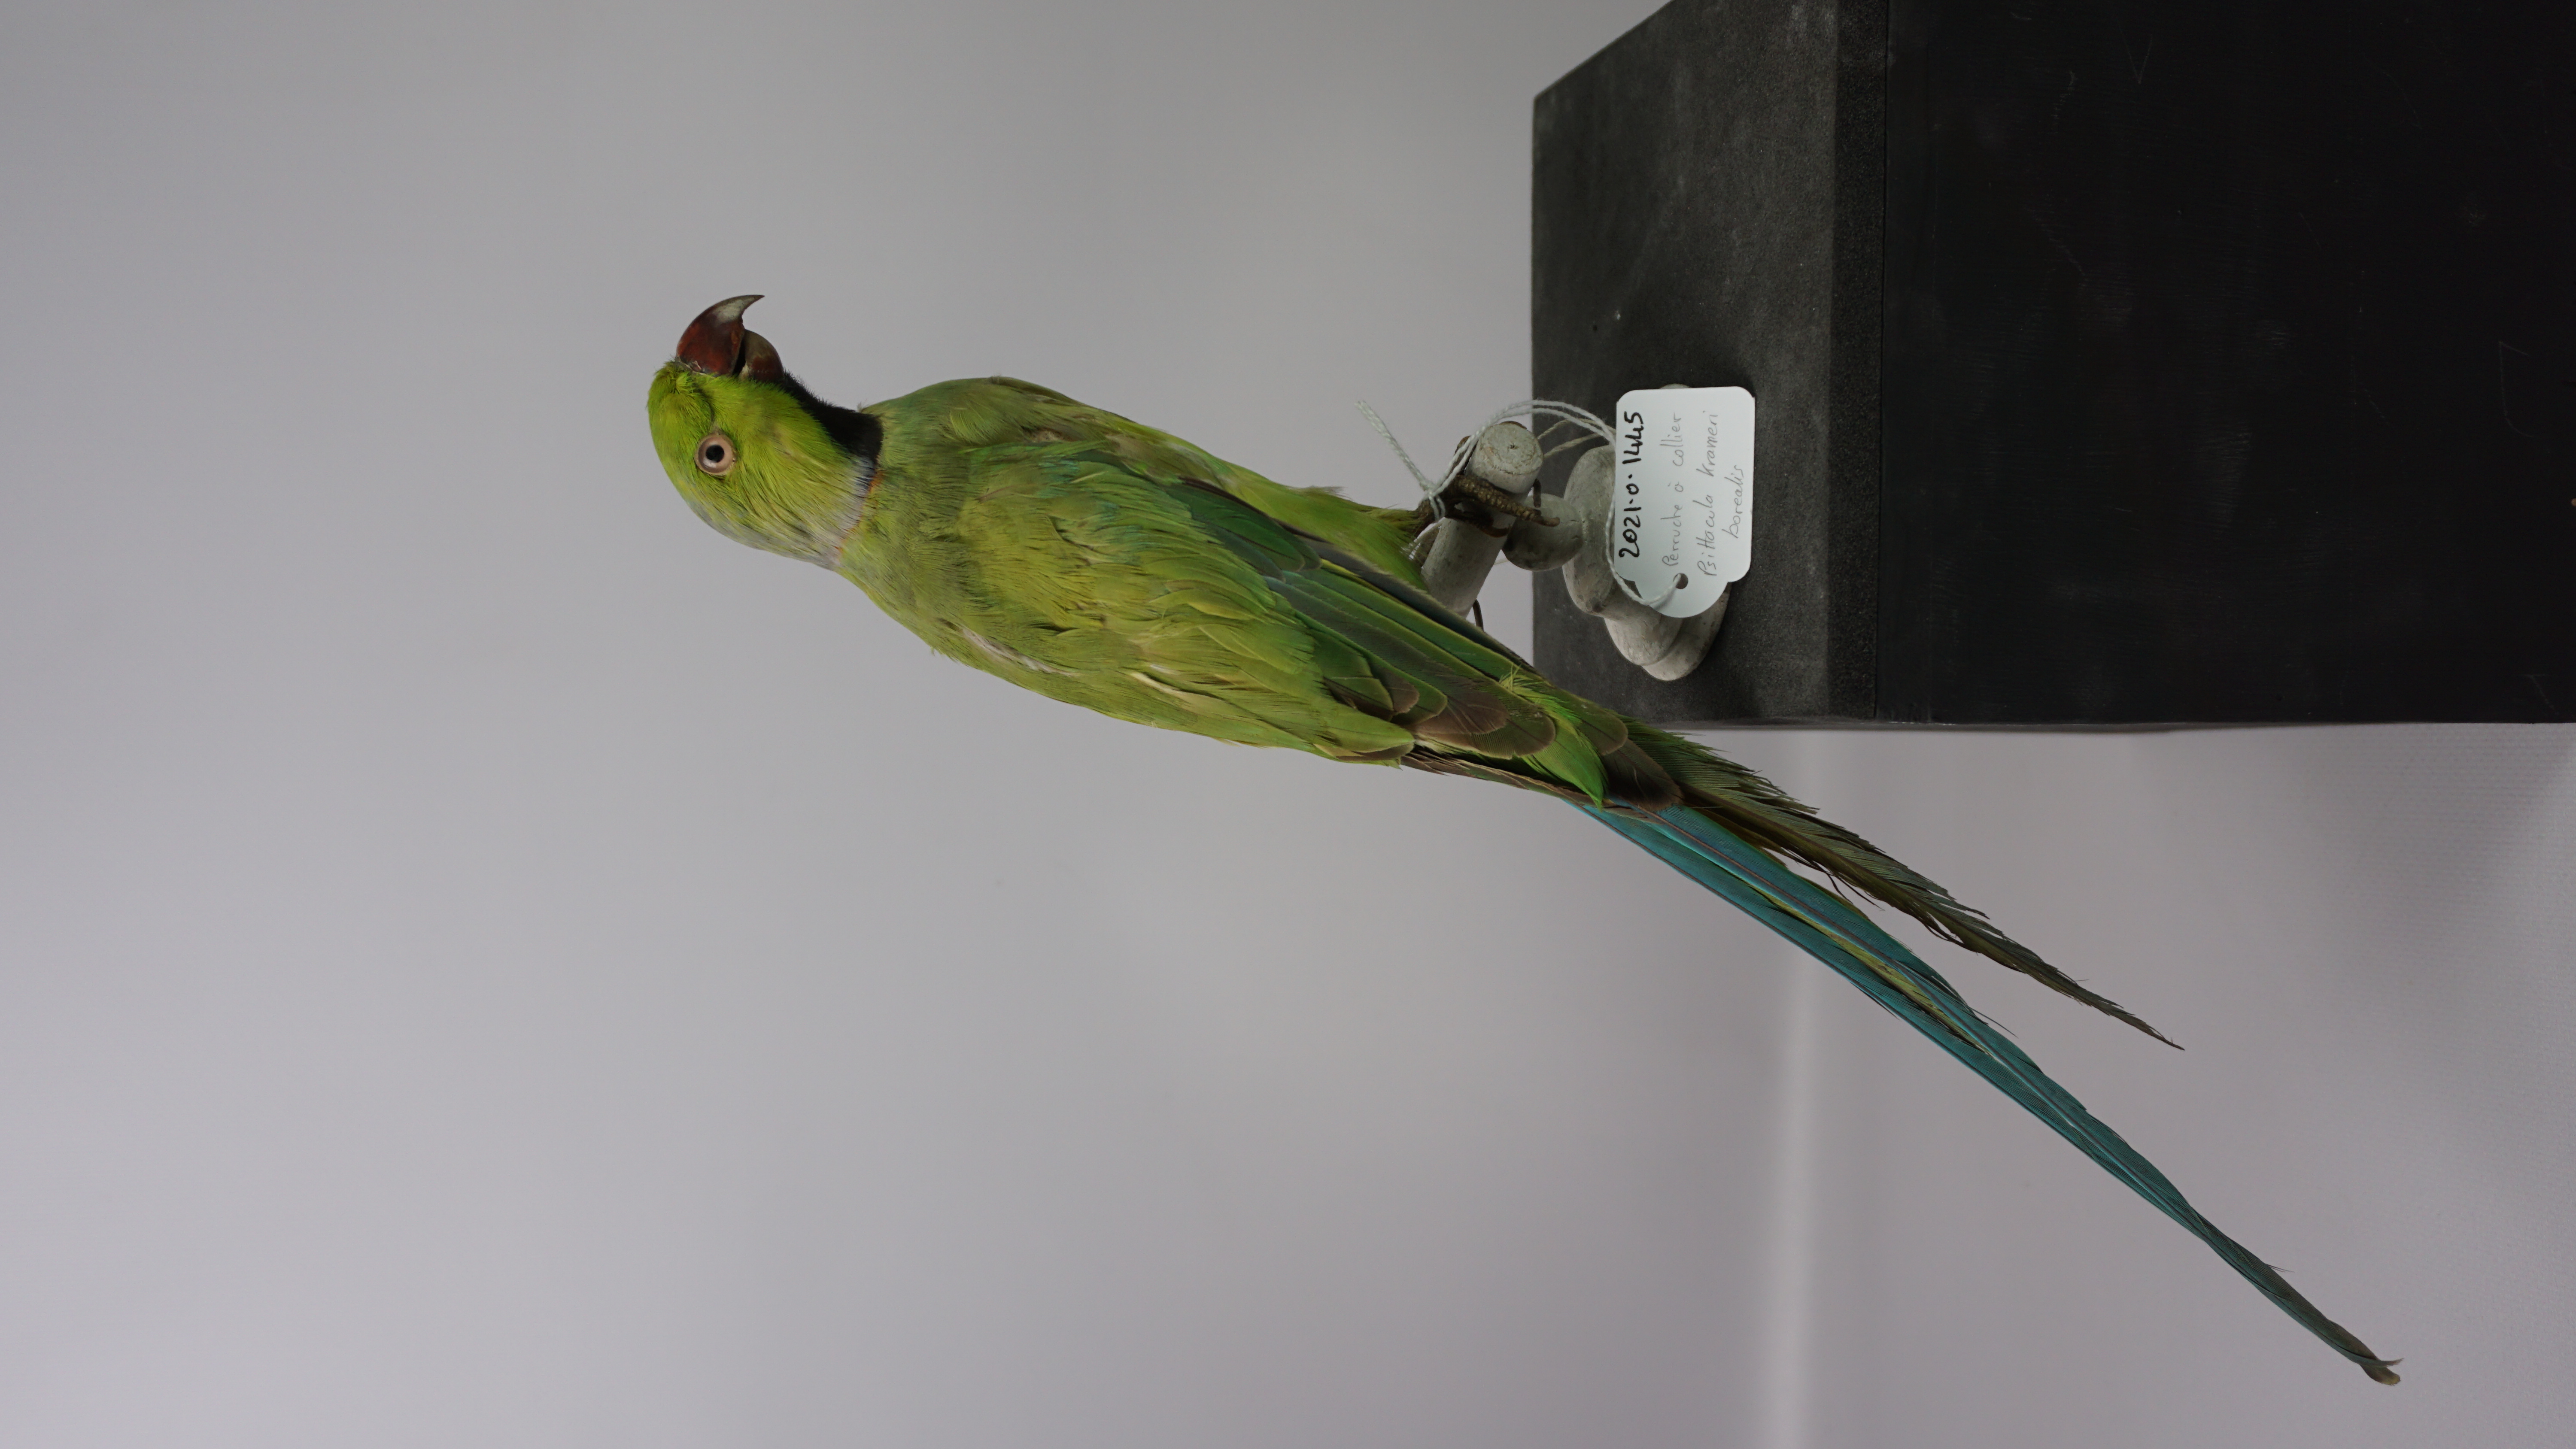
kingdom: Animalia
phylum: Chordata
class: Aves
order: Psittaciformes
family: Psittacidae
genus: Psittacula
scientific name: Psittacula krameri
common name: Rose-ringed parakeet
